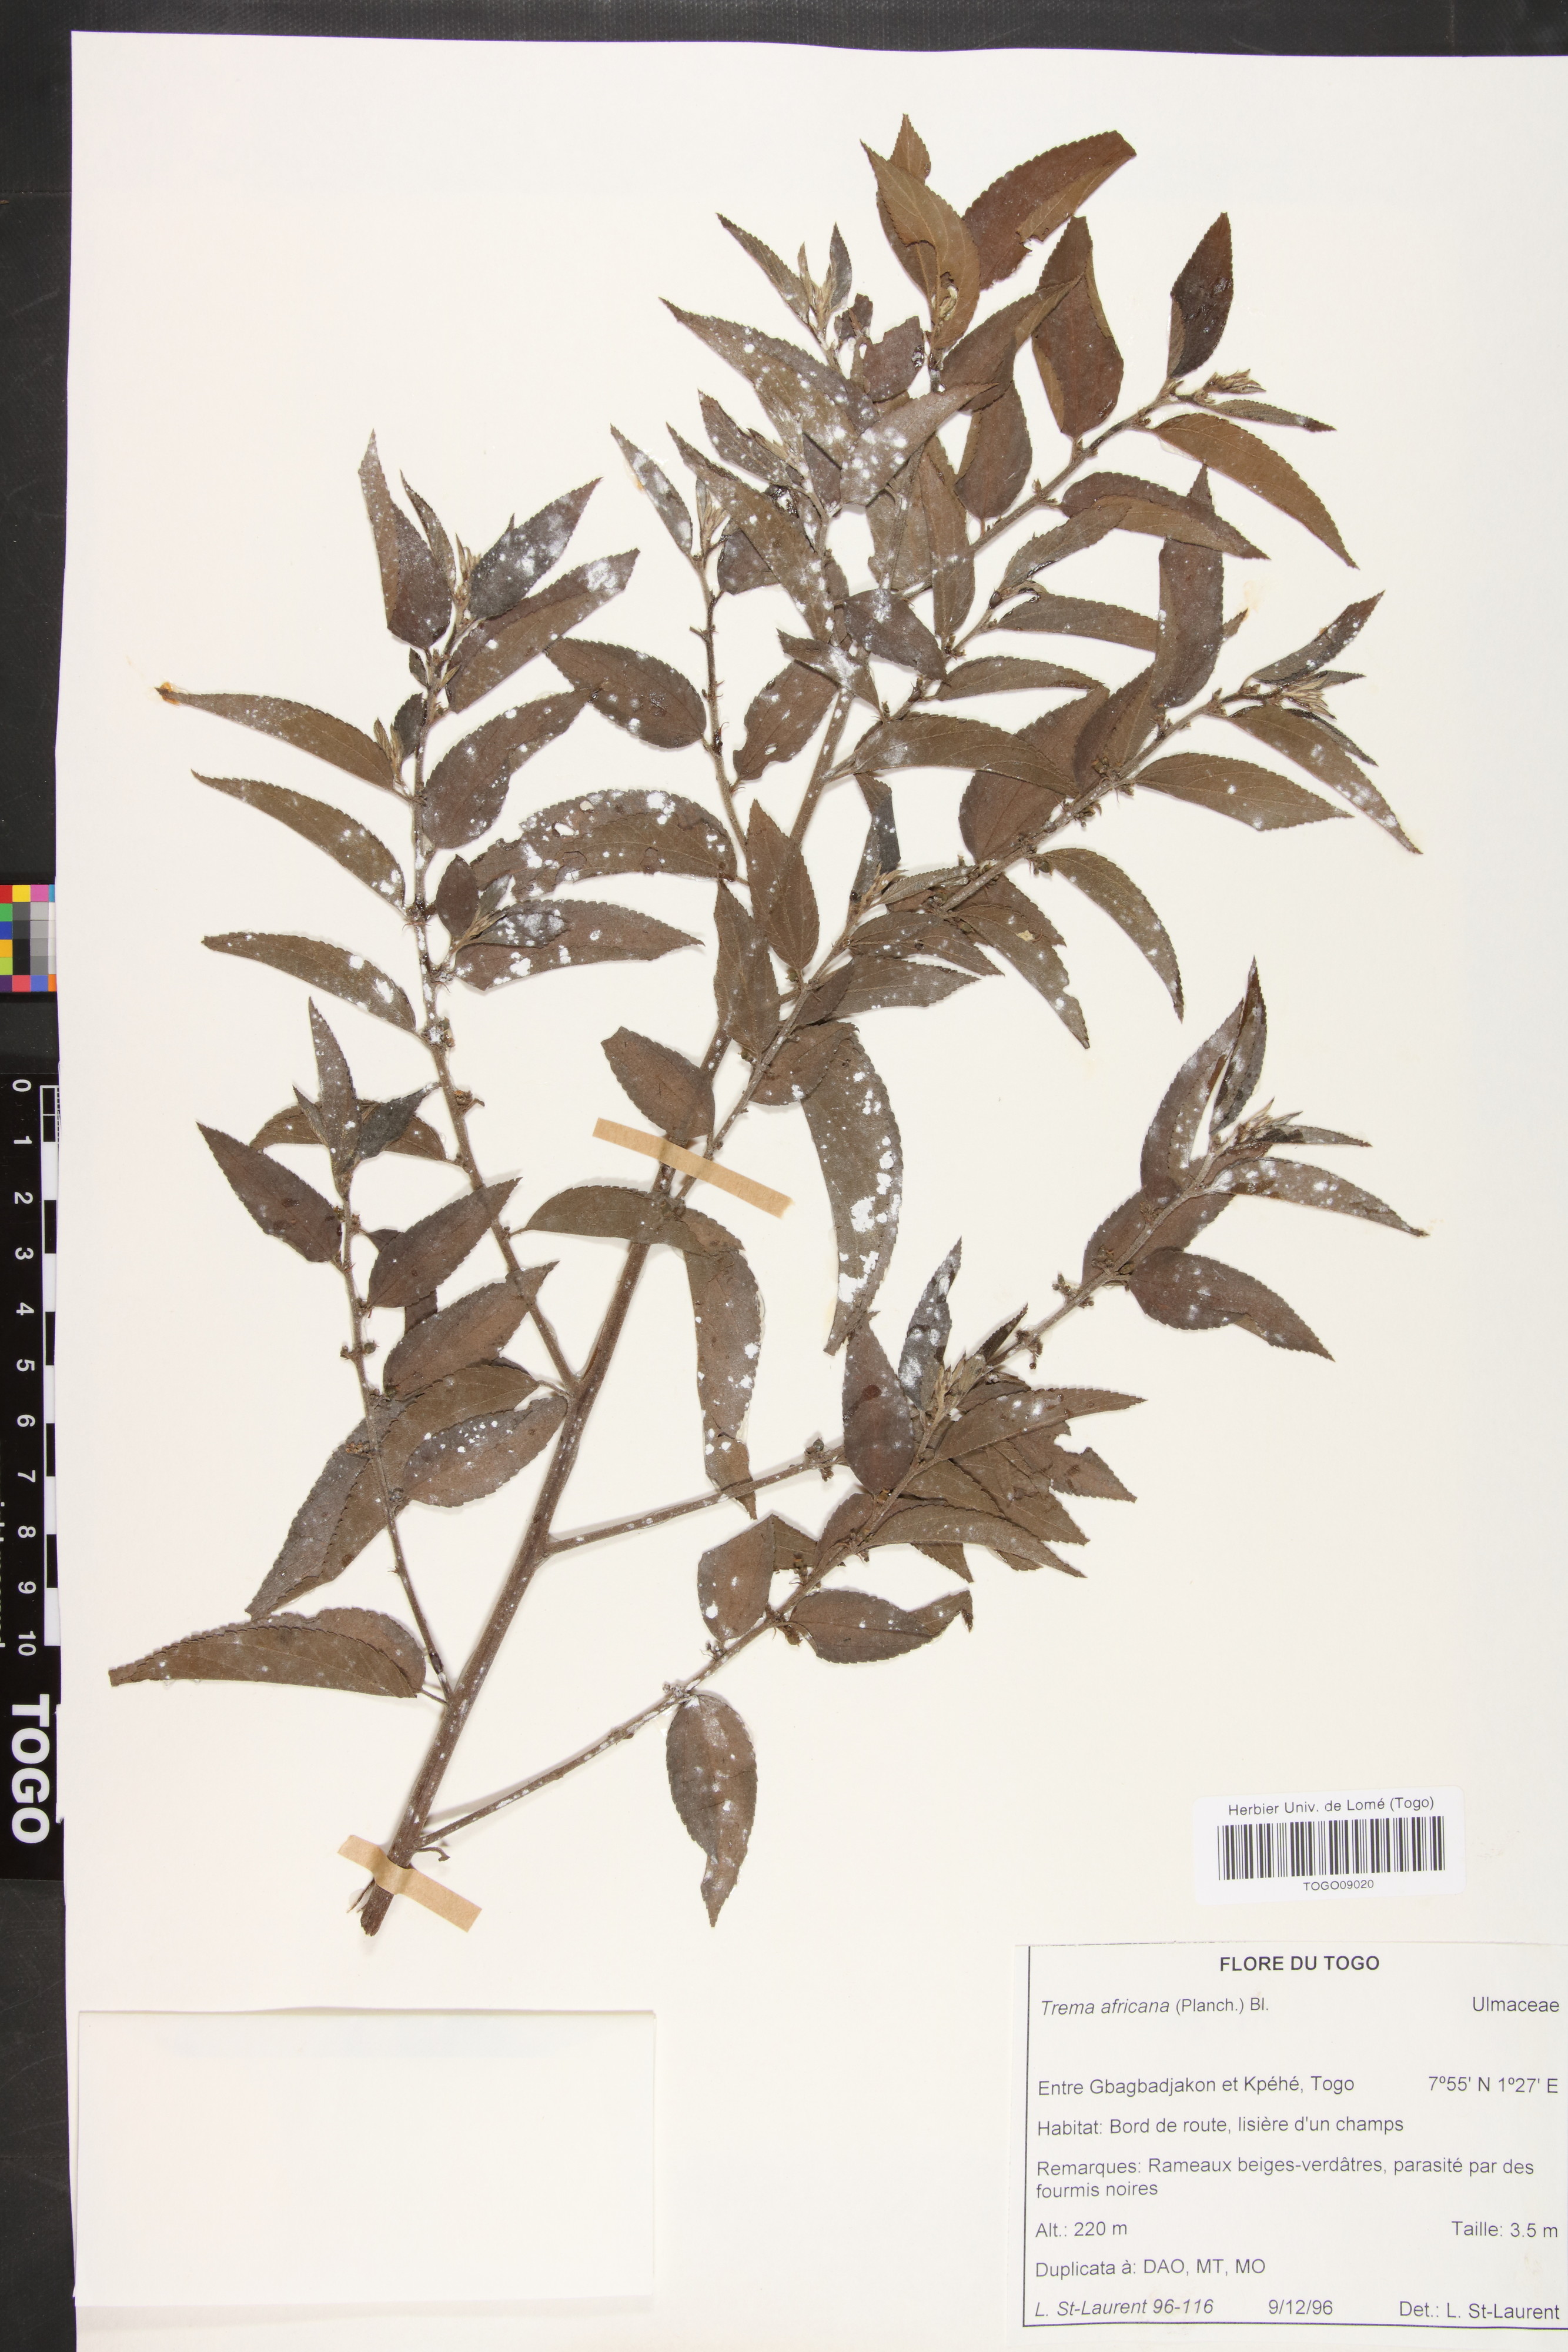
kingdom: Plantae
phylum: Tracheophyta
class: Magnoliopsida
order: Rosales
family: Cannabaceae
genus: Trema
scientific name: Trema orientale
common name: Indian charcoal tree
